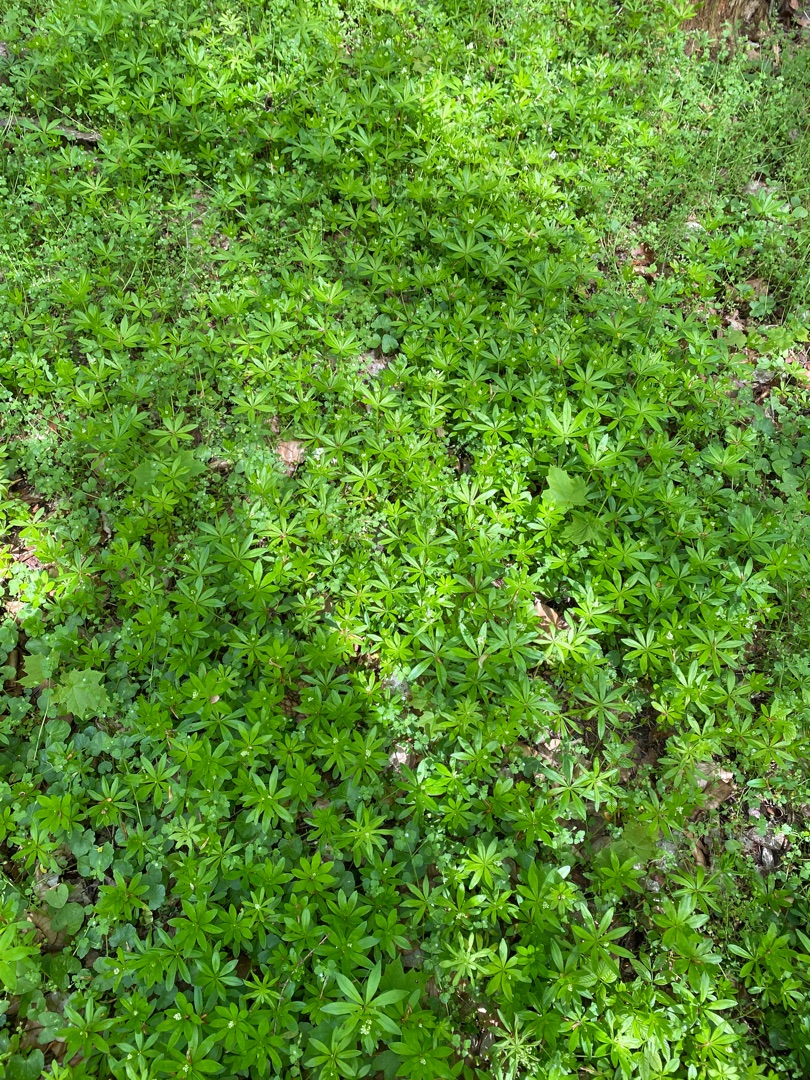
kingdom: Plantae
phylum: Tracheophyta
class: Magnoliopsida
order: Gentianales
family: Rubiaceae
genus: Galium
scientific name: Galium odoratum
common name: Skovmærke
